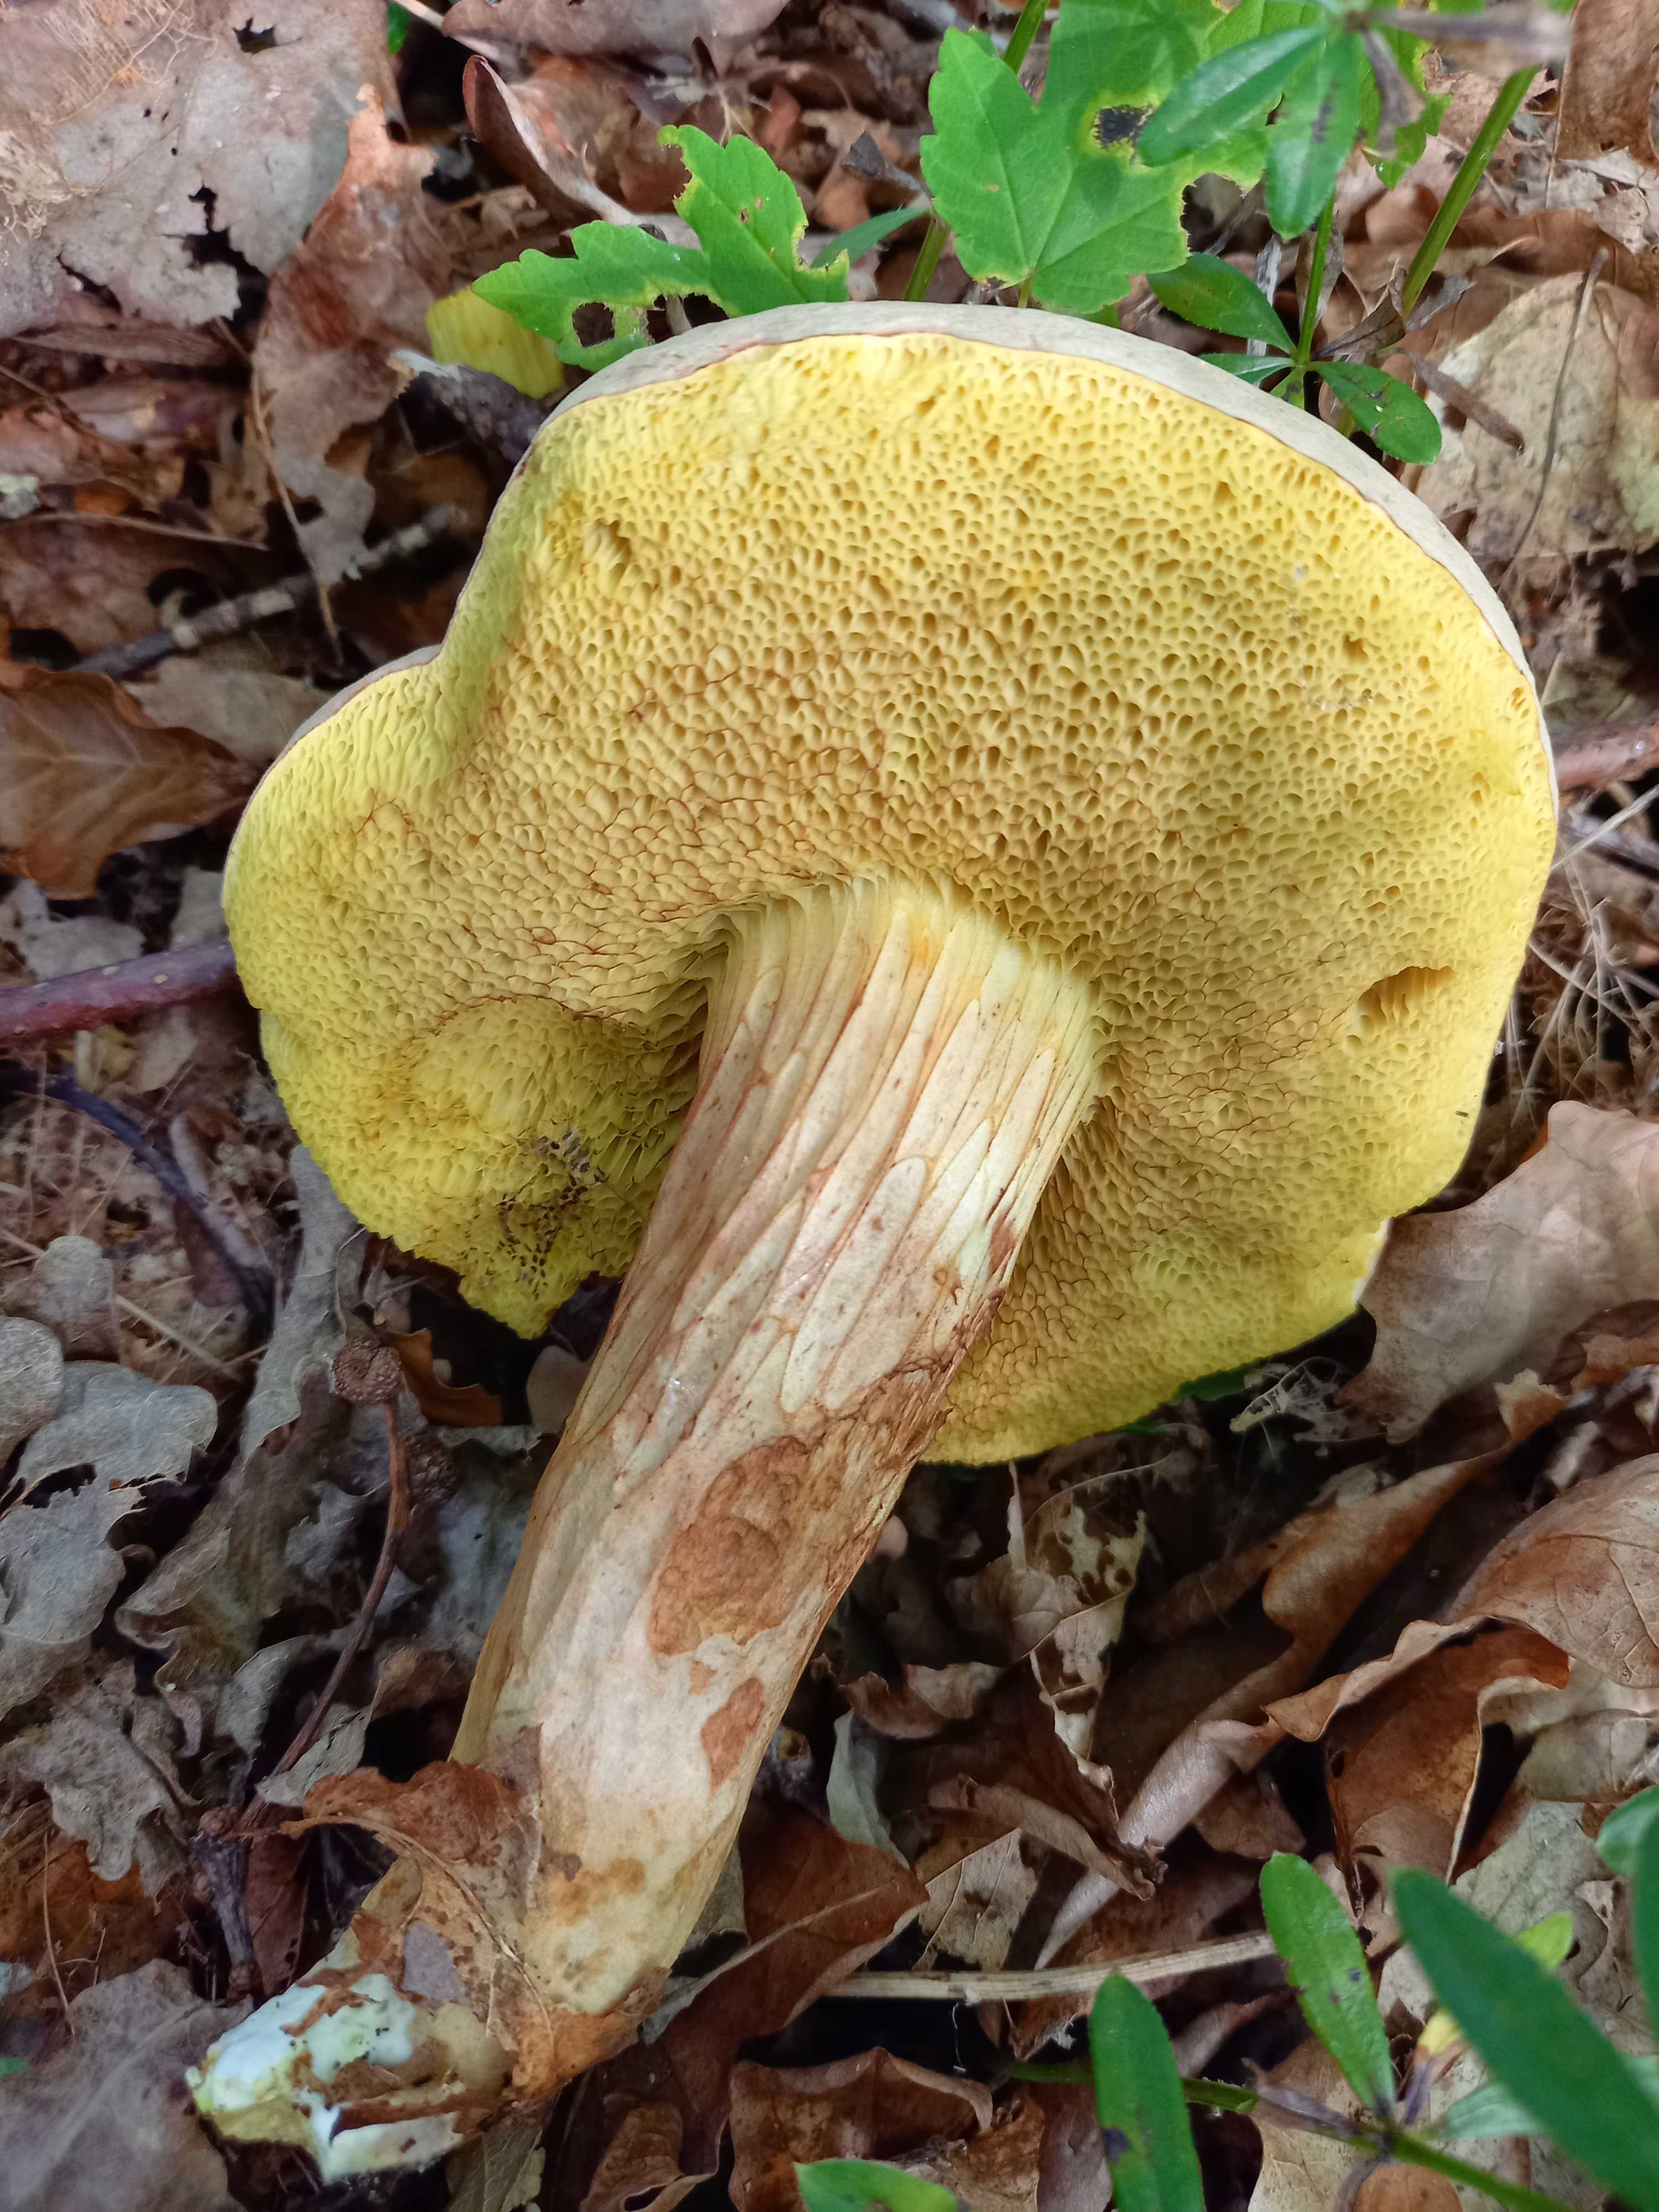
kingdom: Fungi
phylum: Basidiomycota
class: Agaricomycetes
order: Boletales
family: Boletaceae
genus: Xerocomus
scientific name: Xerocomus
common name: filtrørhat
